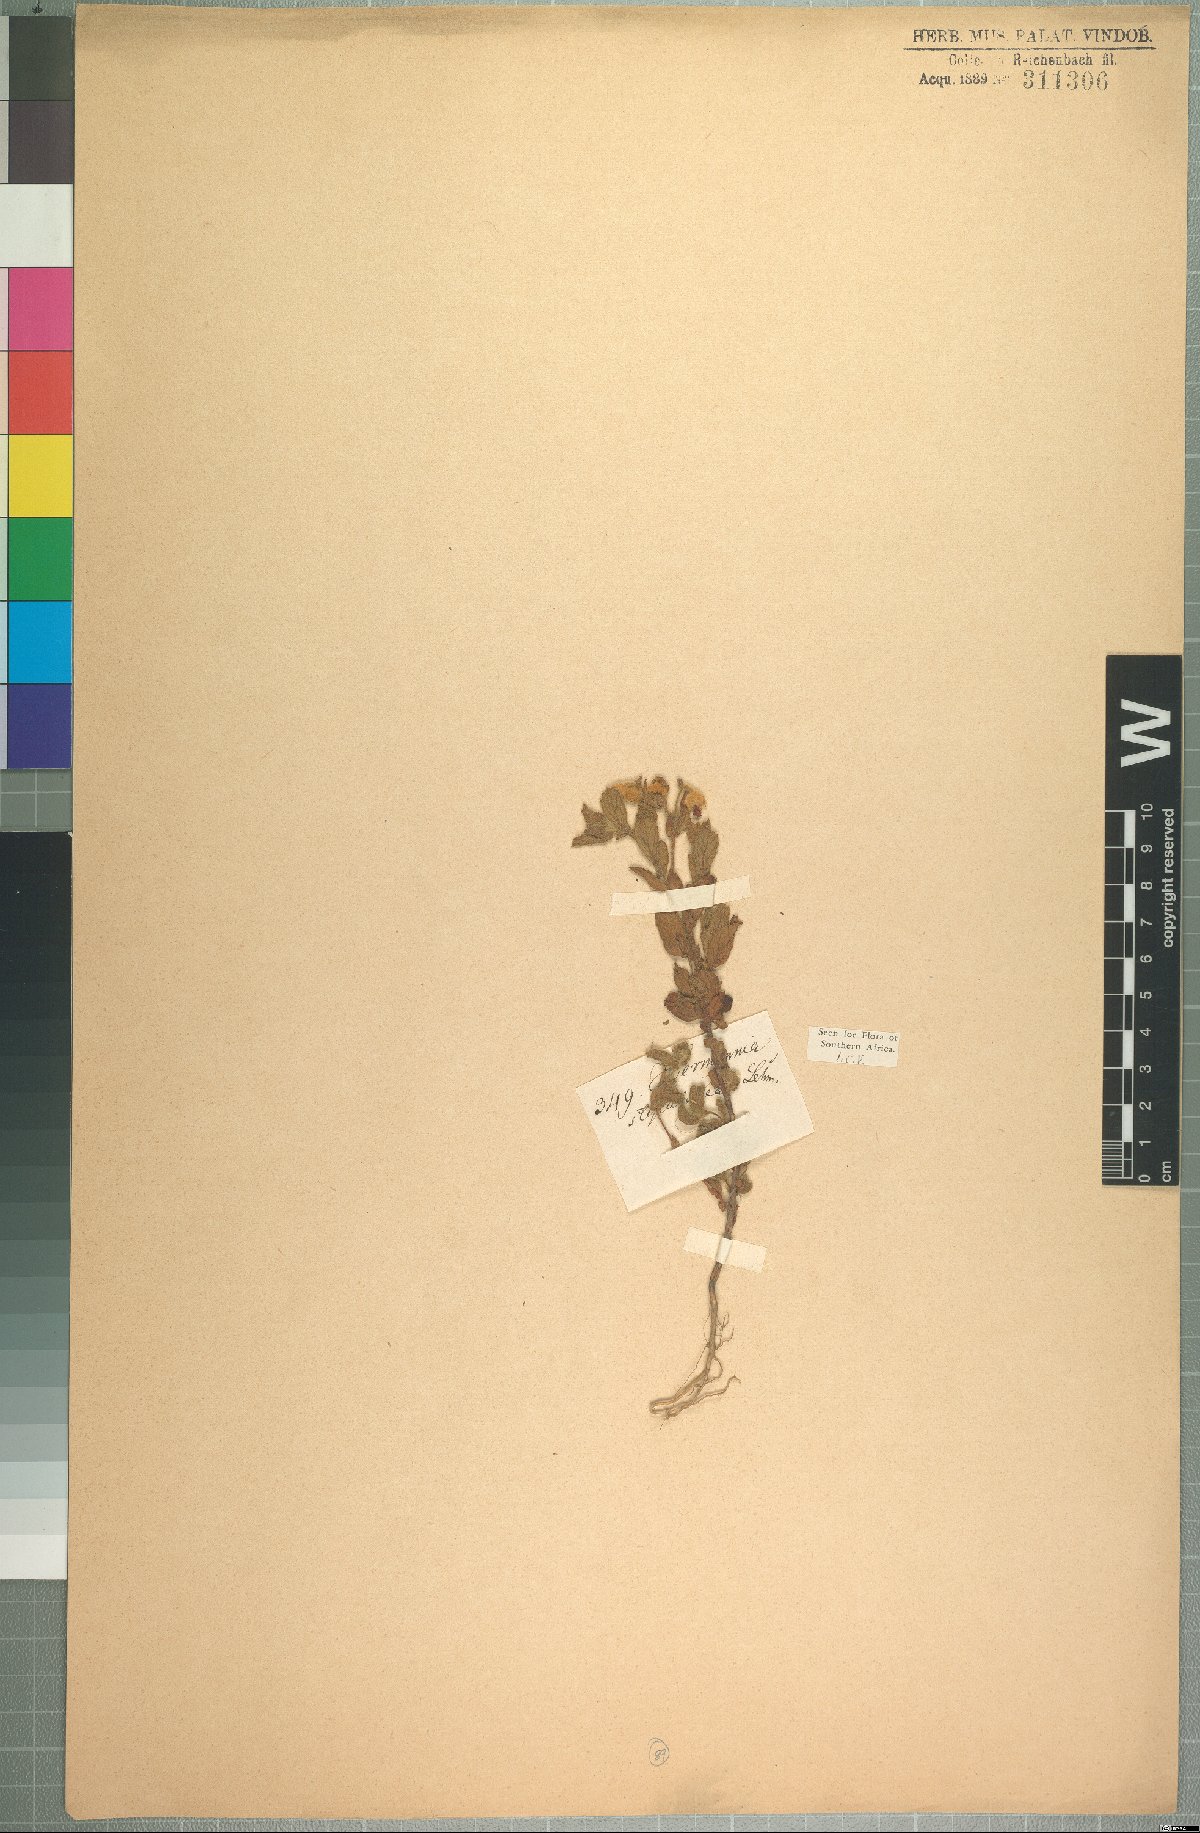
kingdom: Plantae
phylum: Tracheophyta
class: Magnoliopsida
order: Malvales
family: Malvaceae
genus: Hermannia
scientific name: Hermannia stipulacea
